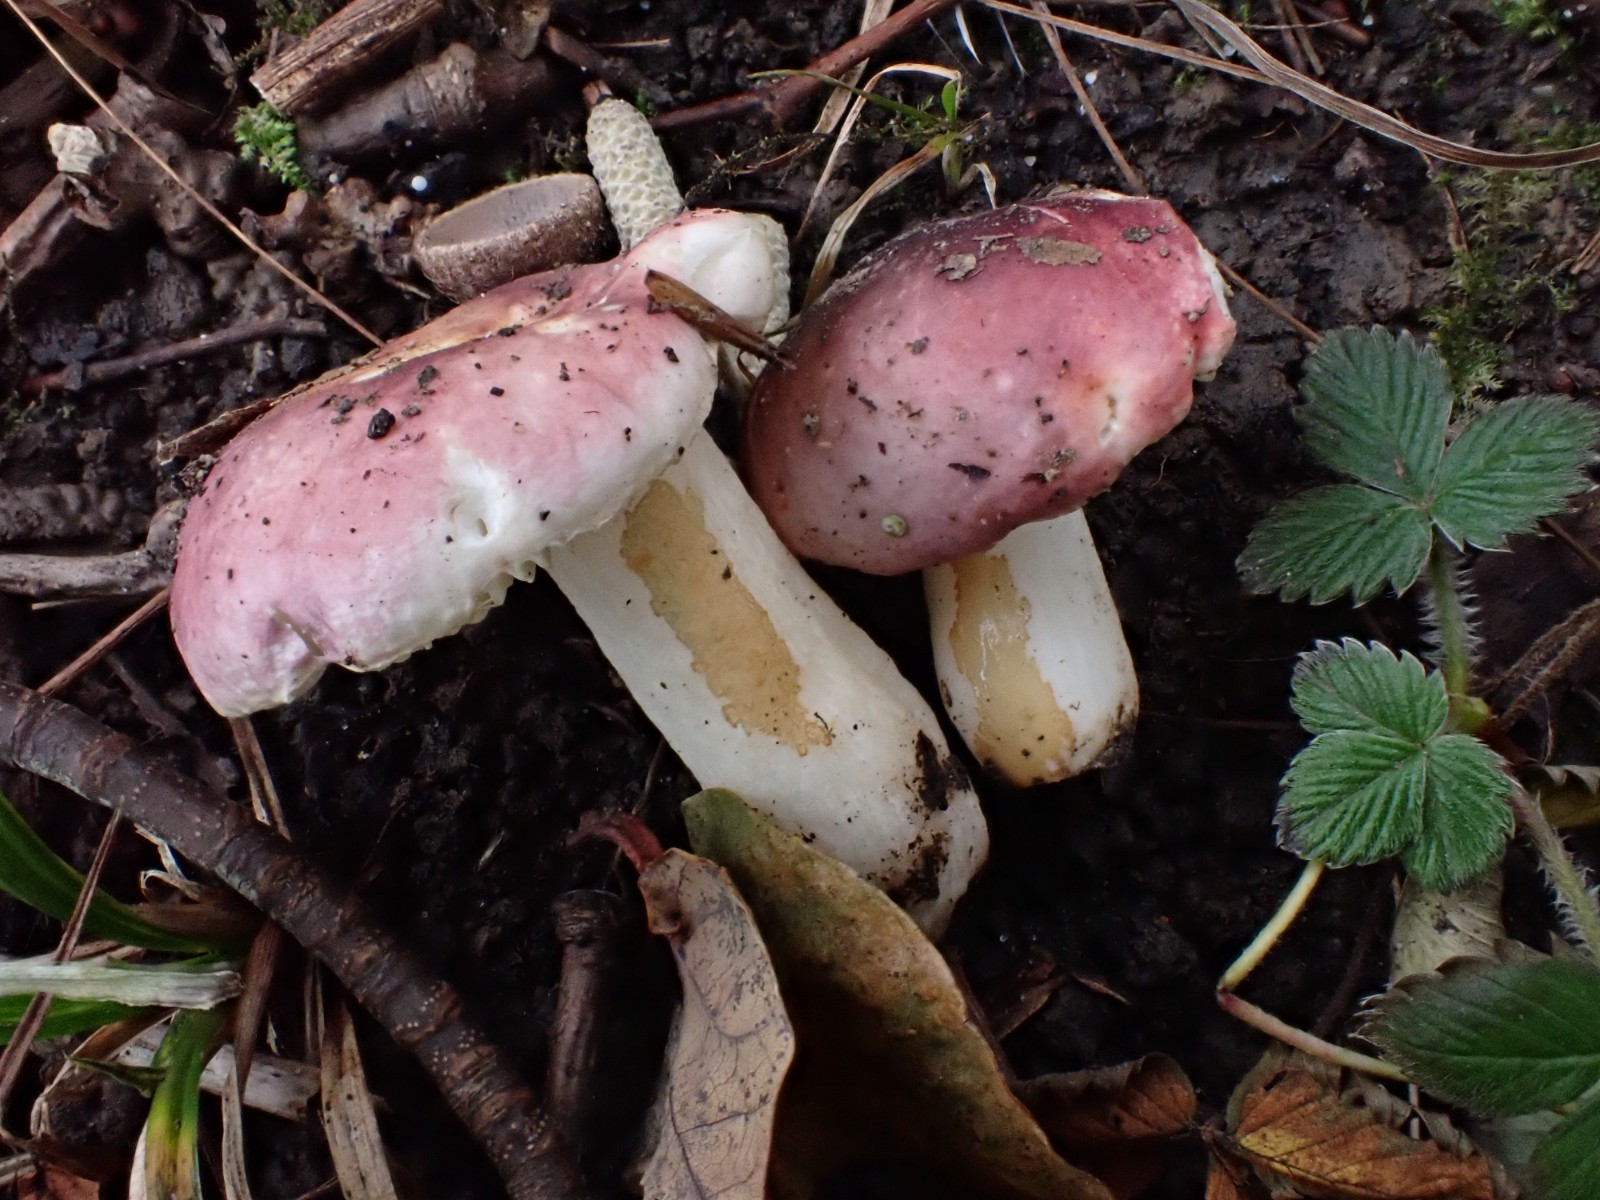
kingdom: Fungi
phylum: Basidiomycota
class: Agaricomycetes
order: Russulales
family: Russulaceae
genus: Russula
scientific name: Russula fragilis
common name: savbladet skørhat
